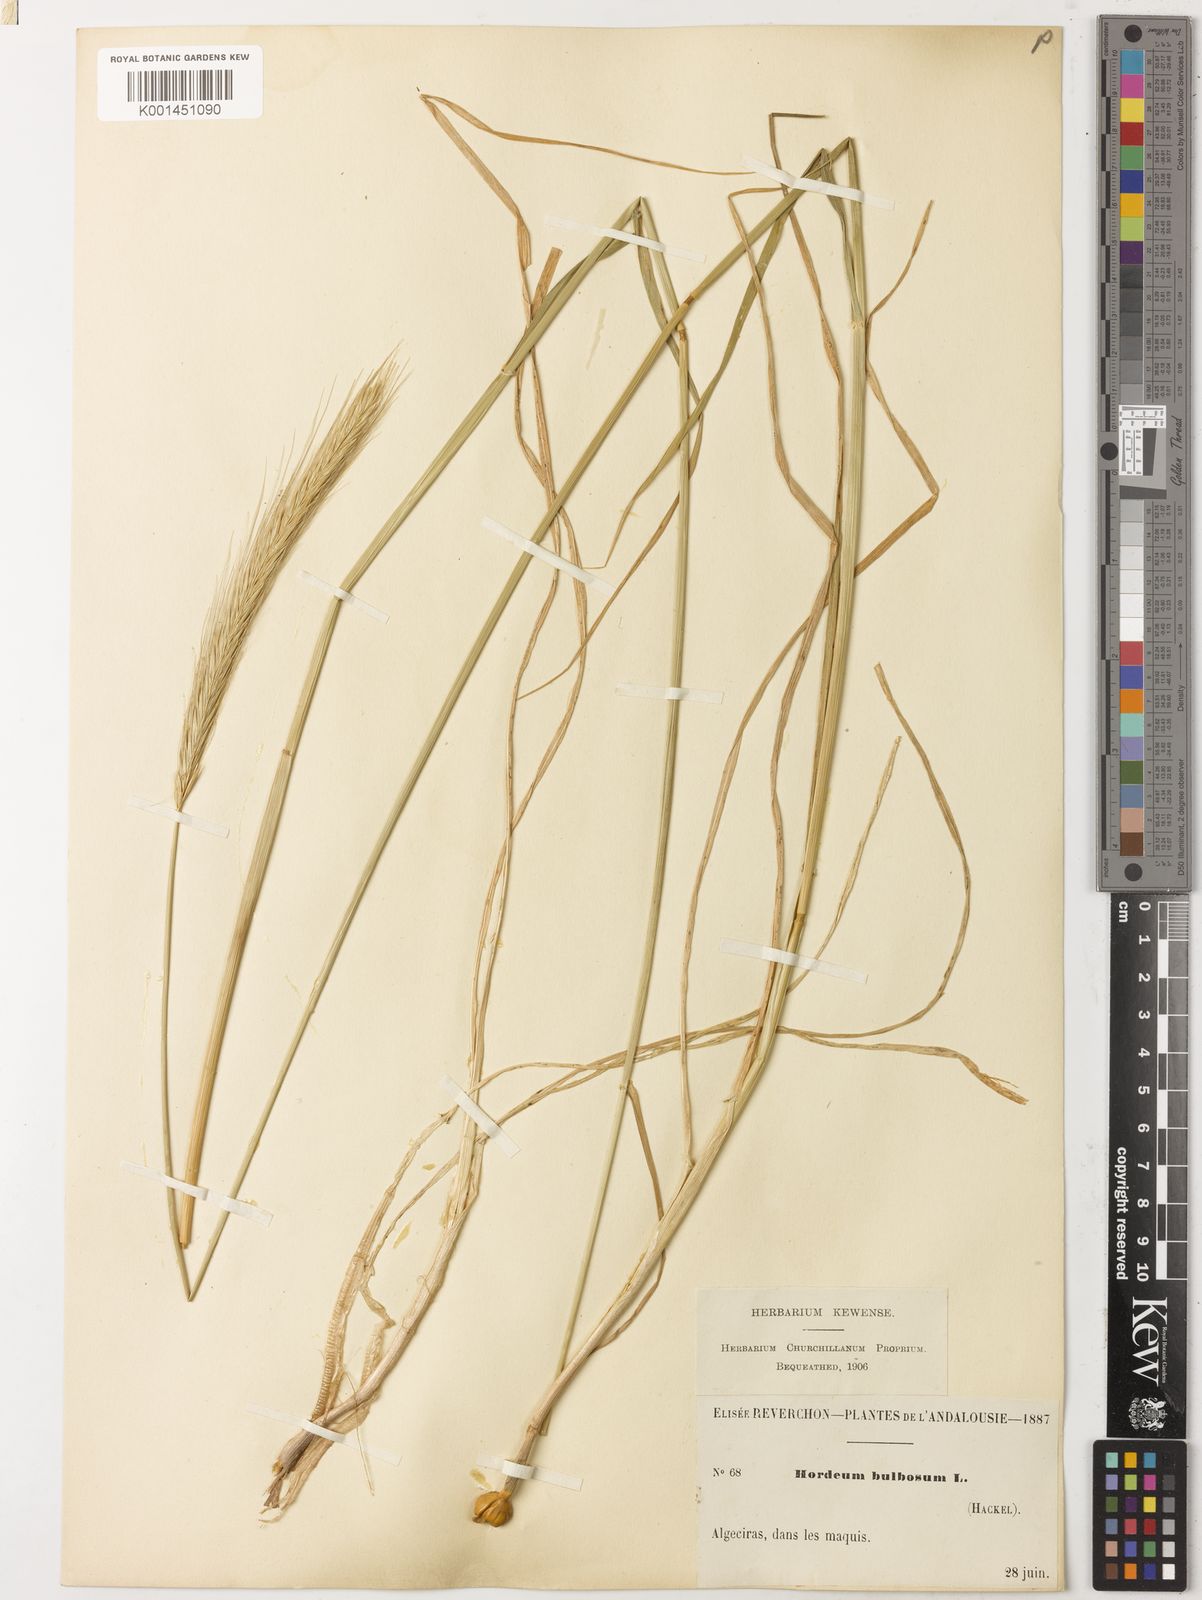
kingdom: Plantae
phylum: Tracheophyta
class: Liliopsida
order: Poales
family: Poaceae
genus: Hordeum
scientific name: Hordeum bulbosum
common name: Bulbous barley
